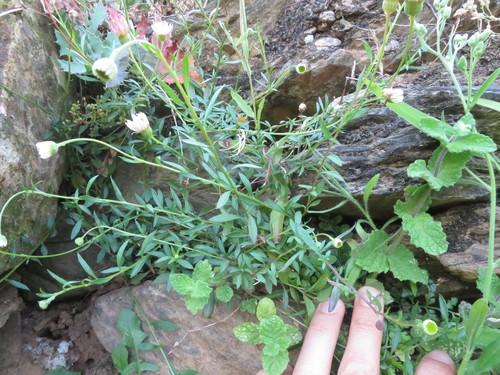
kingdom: Plantae
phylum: Tracheophyta
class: Magnoliopsida
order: Asterales
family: Asteraceae
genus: Erigeron
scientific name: Erigeron karvinskianus
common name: Mexican fleabane
